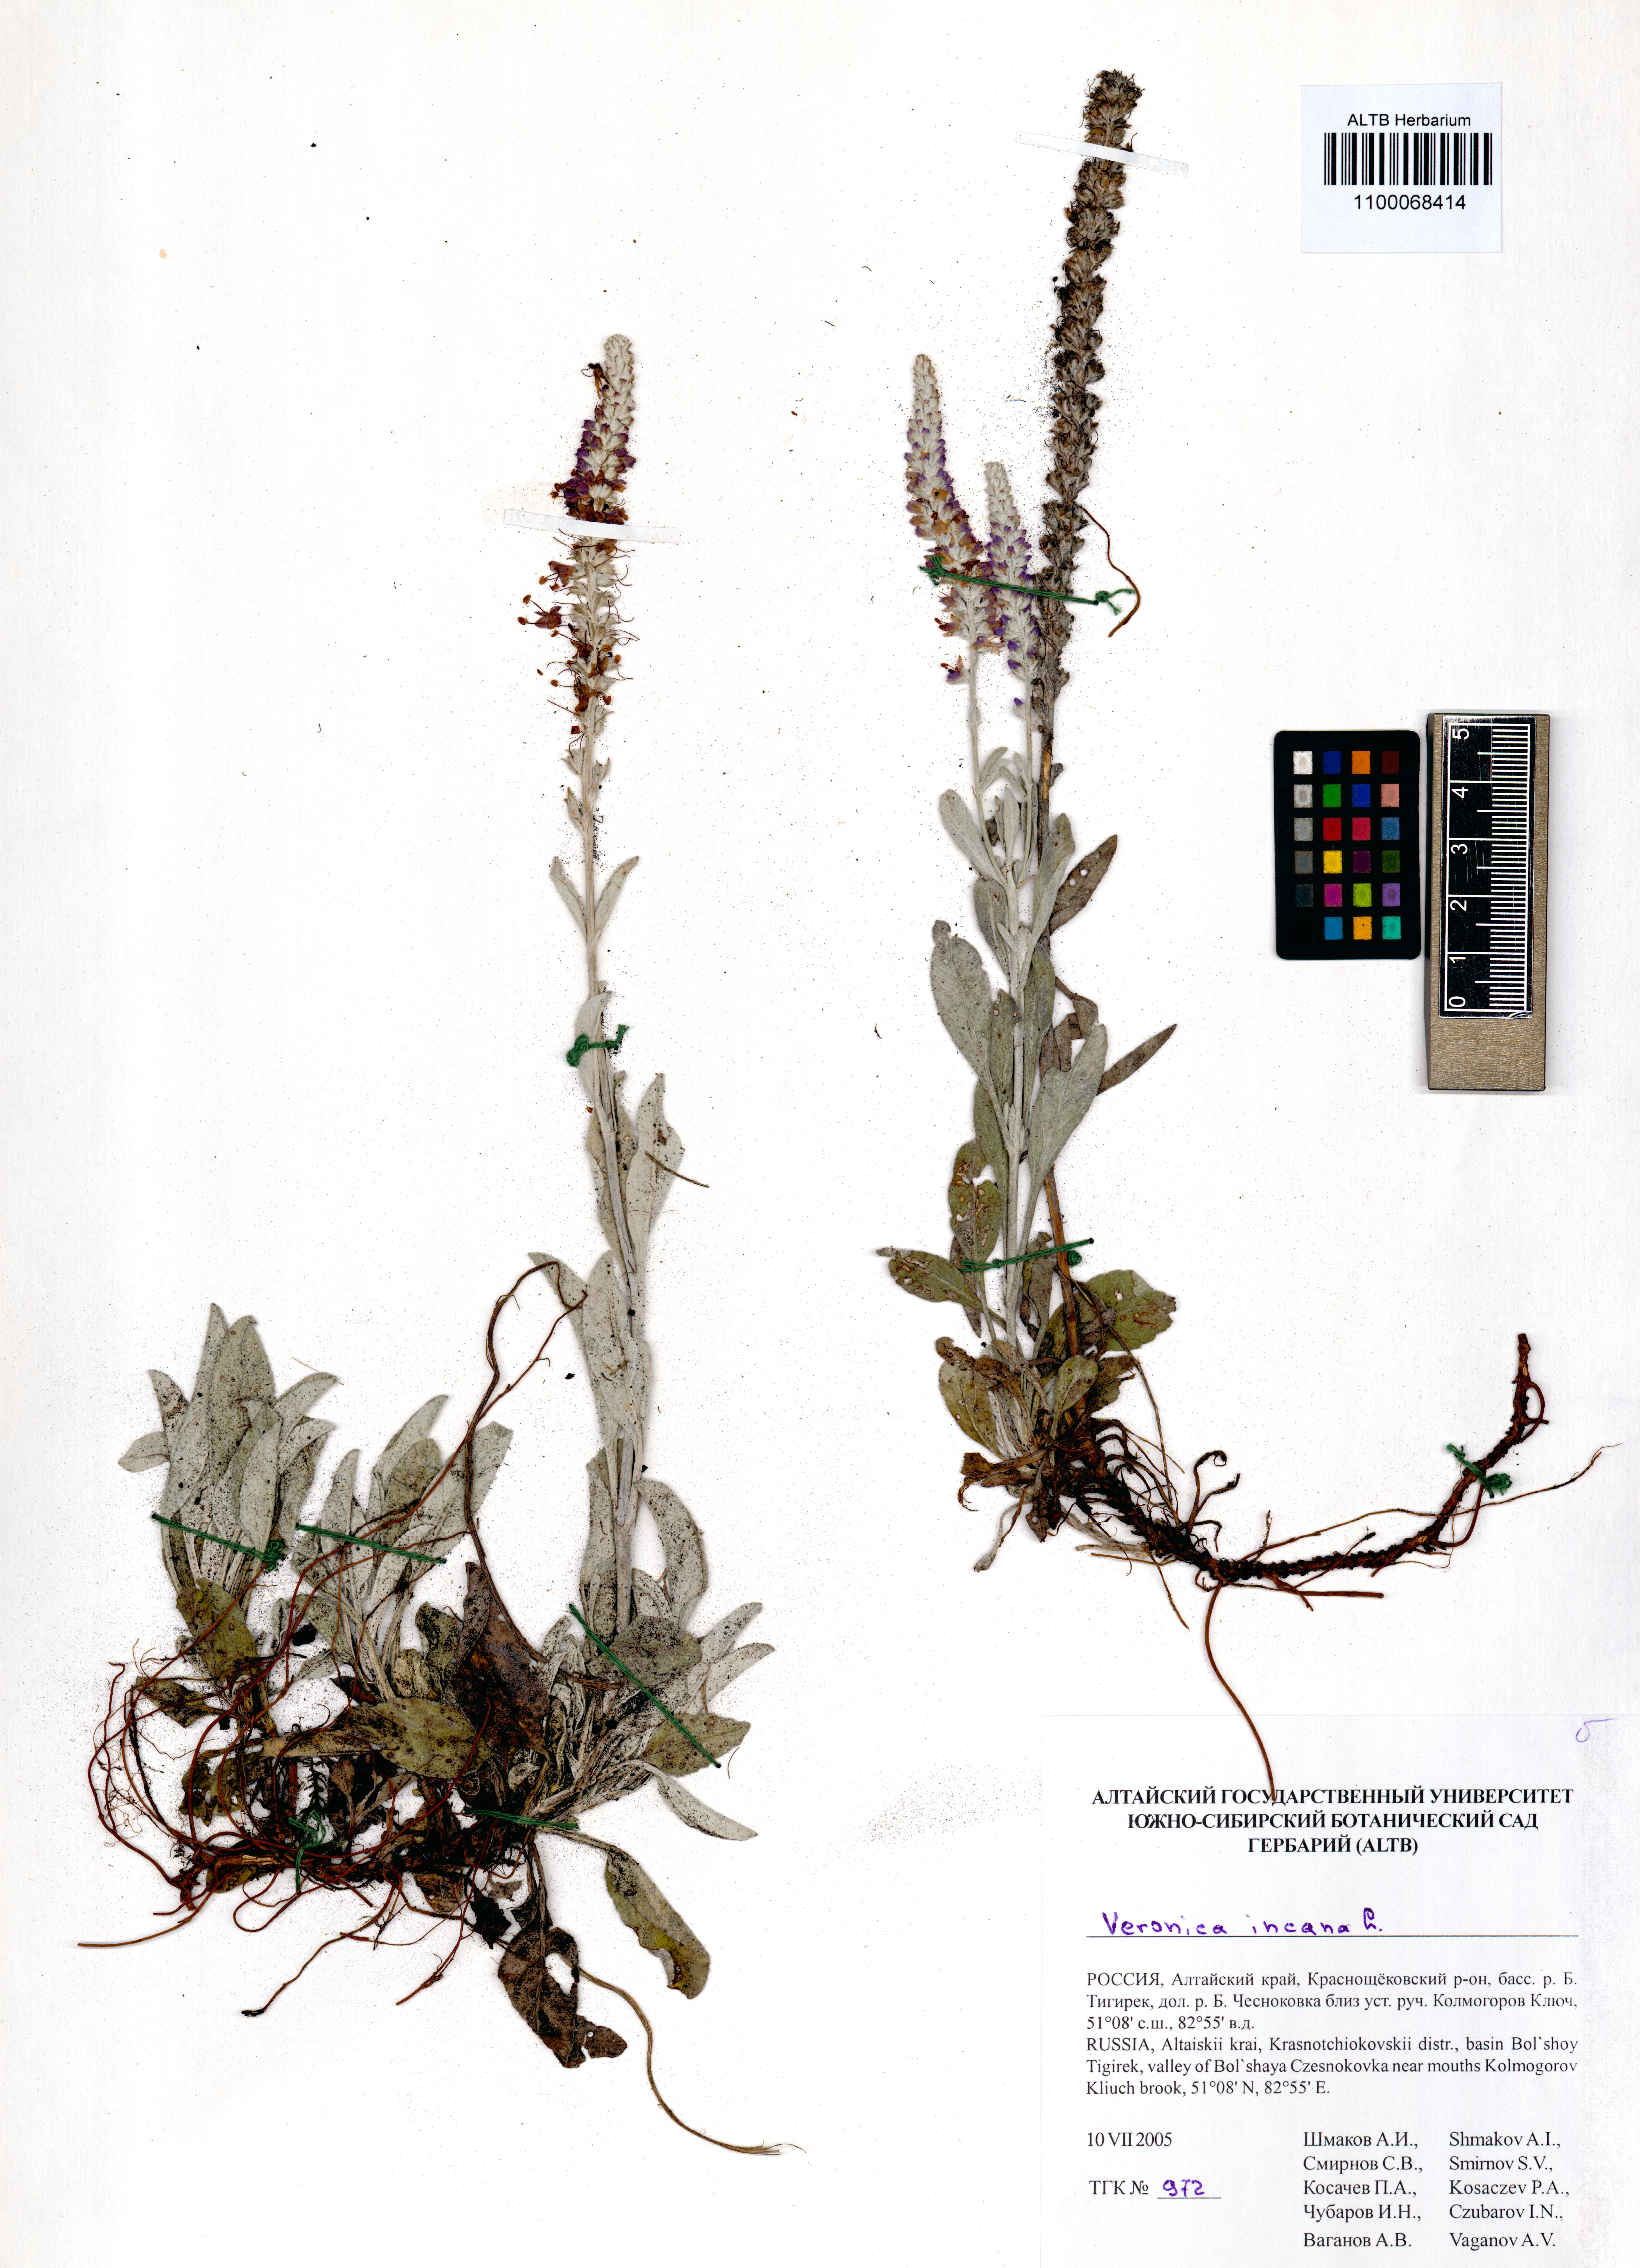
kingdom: Plantae
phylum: Tracheophyta
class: Magnoliopsida
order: Lamiales
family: Plantaginaceae
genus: Veronica
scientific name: Veronica incana
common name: Silver speedwell
